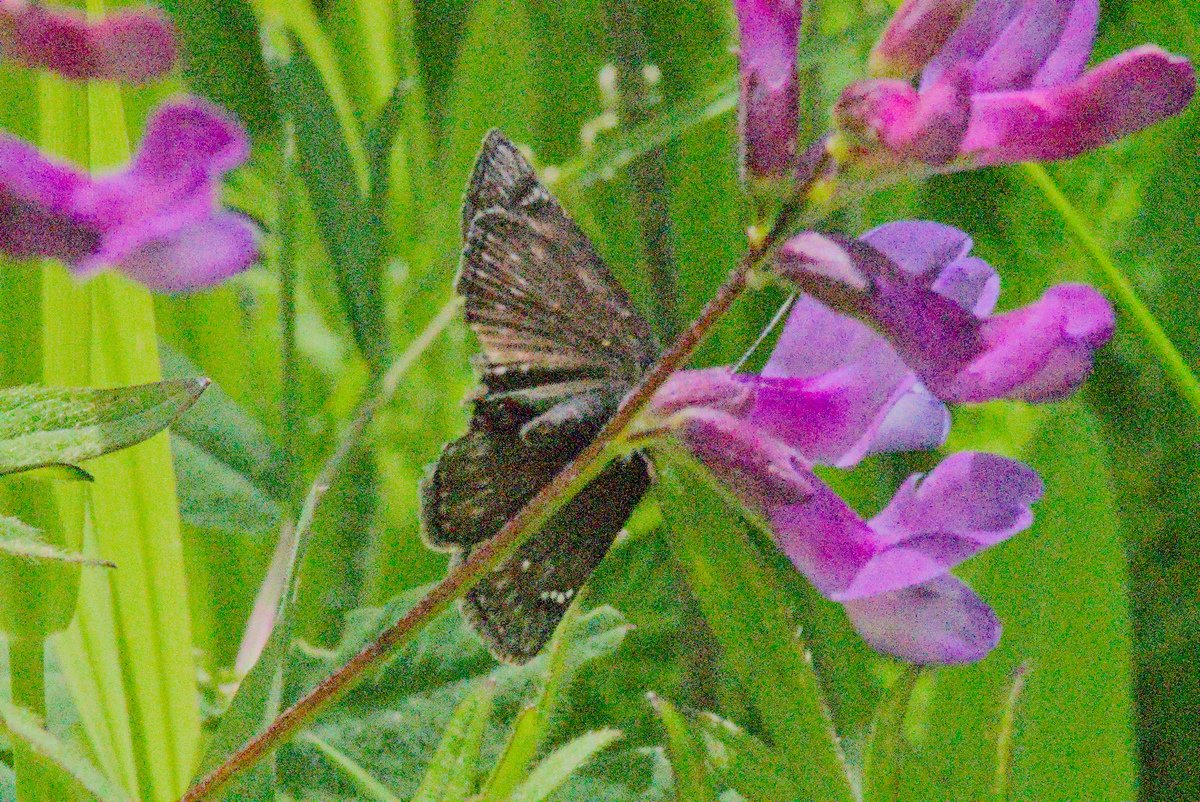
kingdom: Animalia
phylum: Arthropoda
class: Insecta
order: Lepidoptera
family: Hesperiidae
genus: Gesta
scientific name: Gesta
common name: Persius Duskywing
